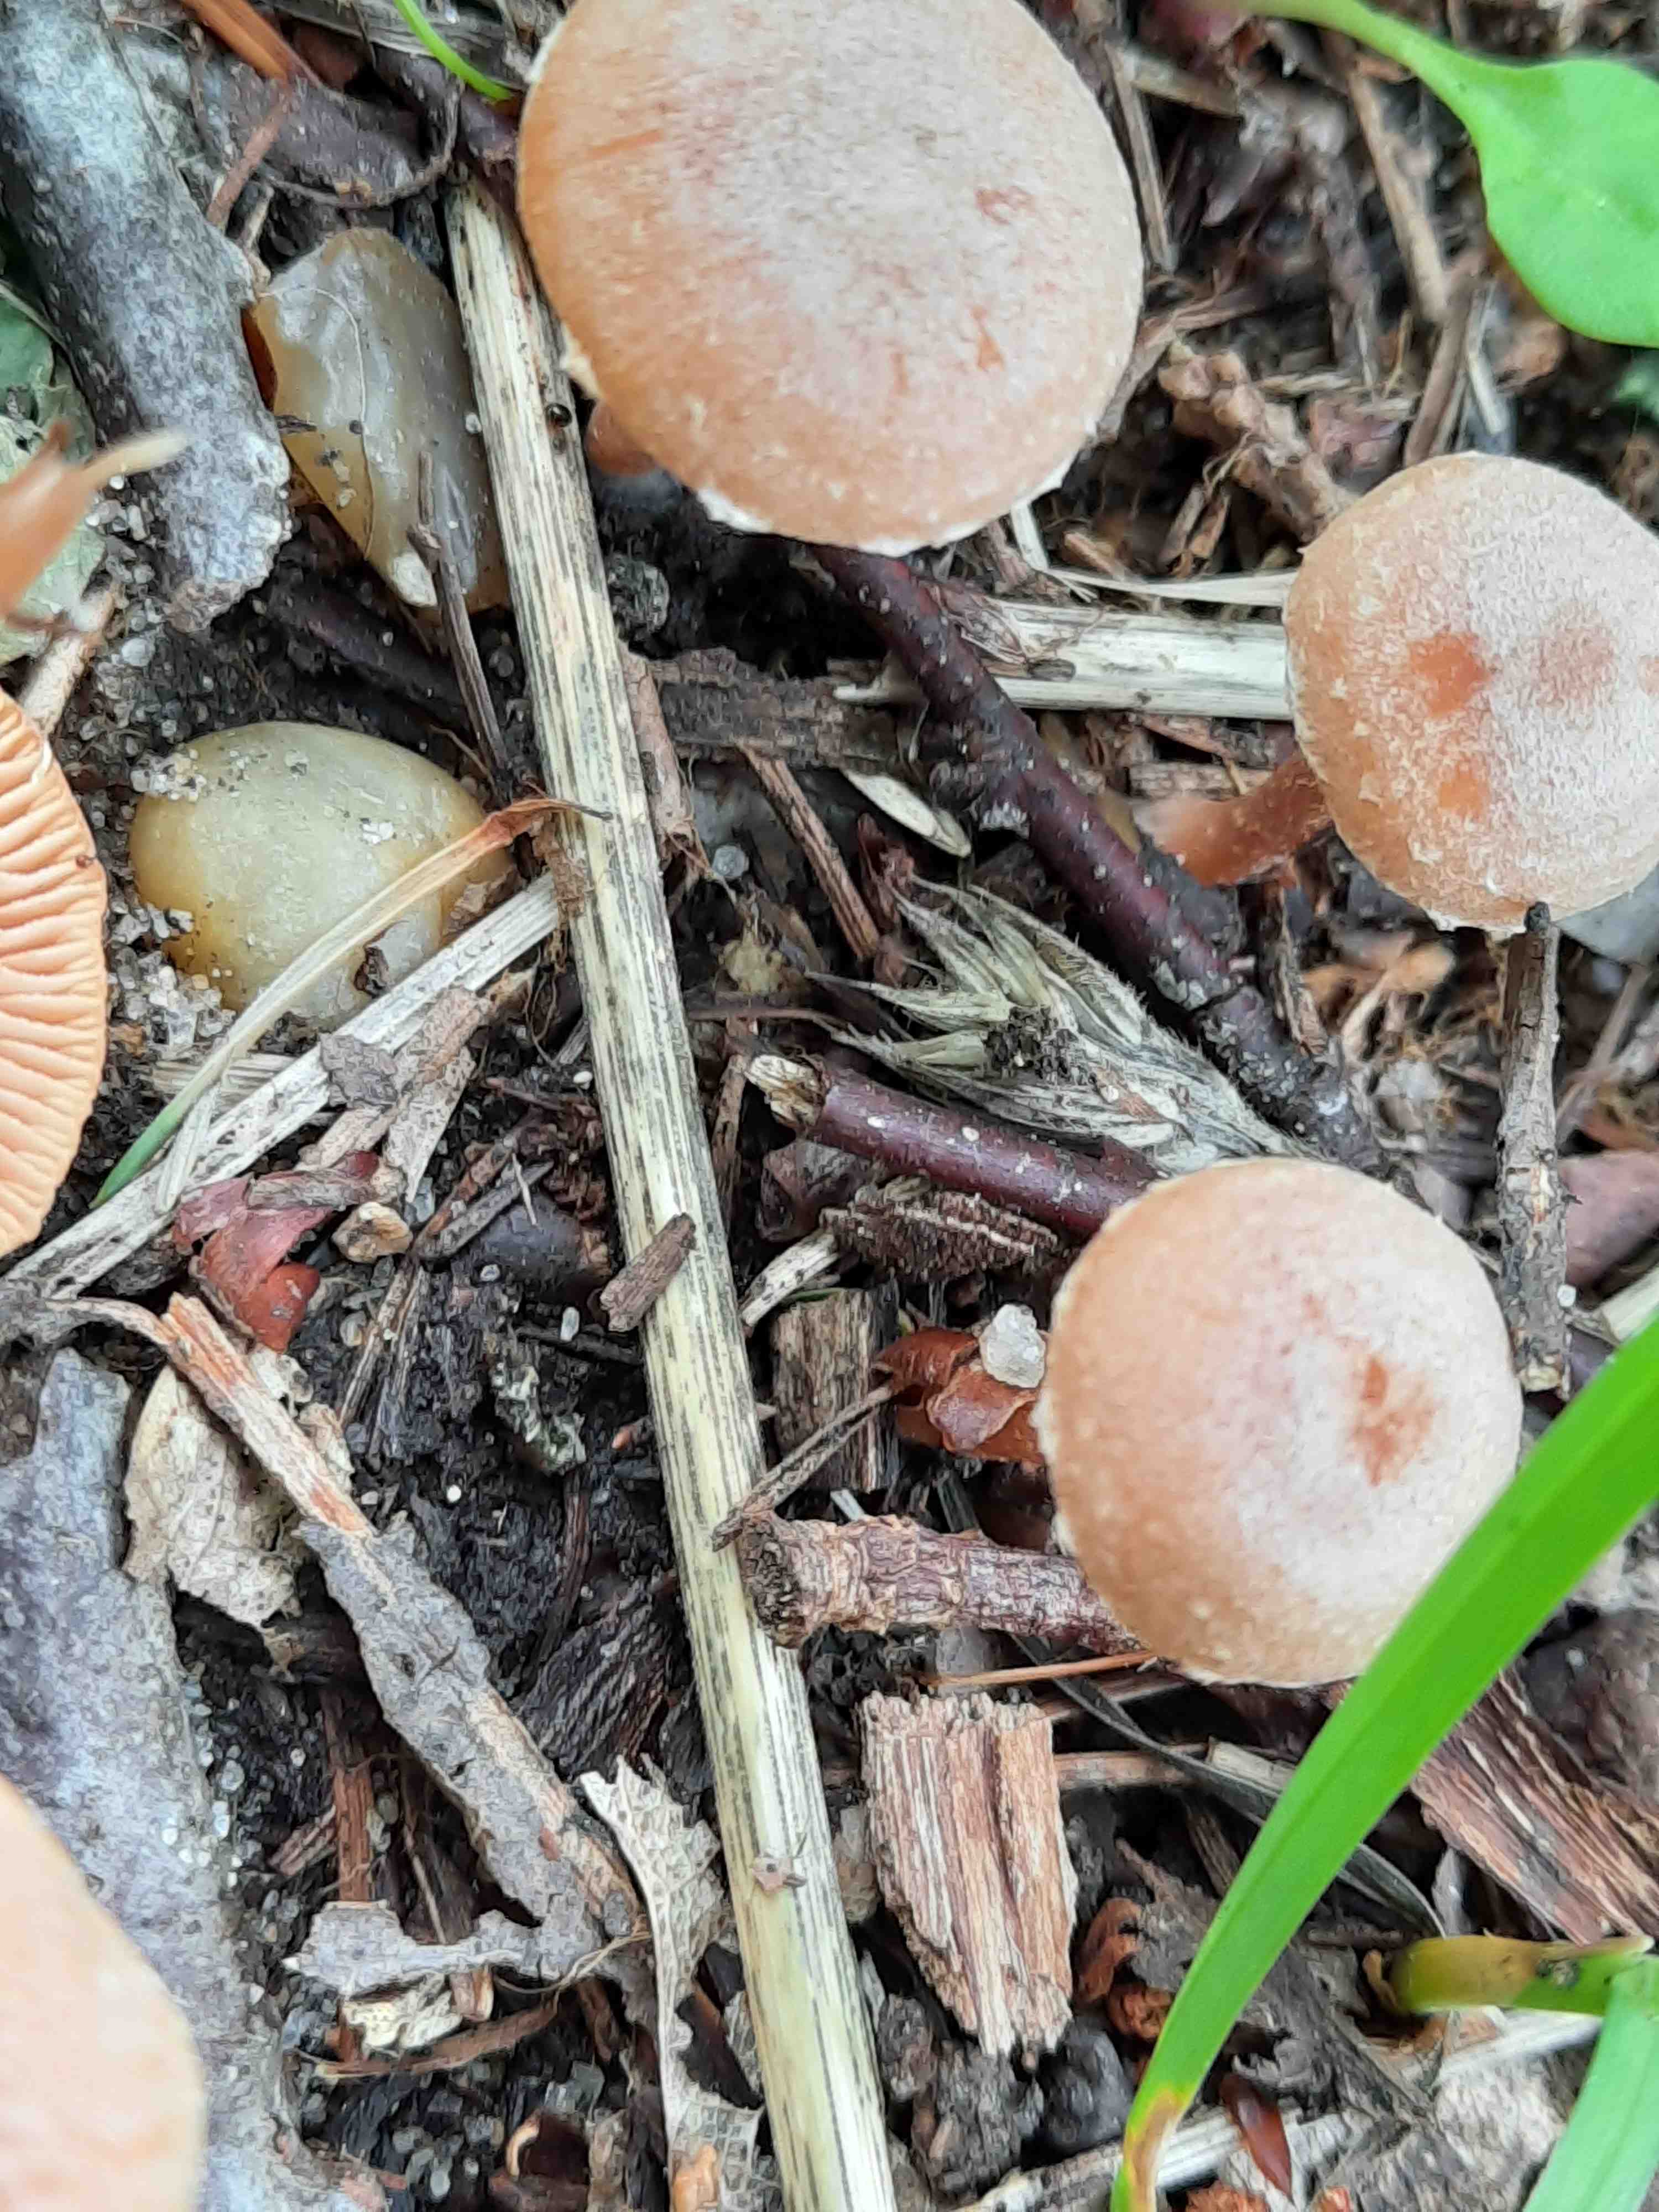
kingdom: Fungi
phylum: Basidiomycota
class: Agaricomycetes
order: Agaricales
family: Tubariaceae
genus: Tubaria
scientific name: Tubaria conspersa
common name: bleg fnughat
